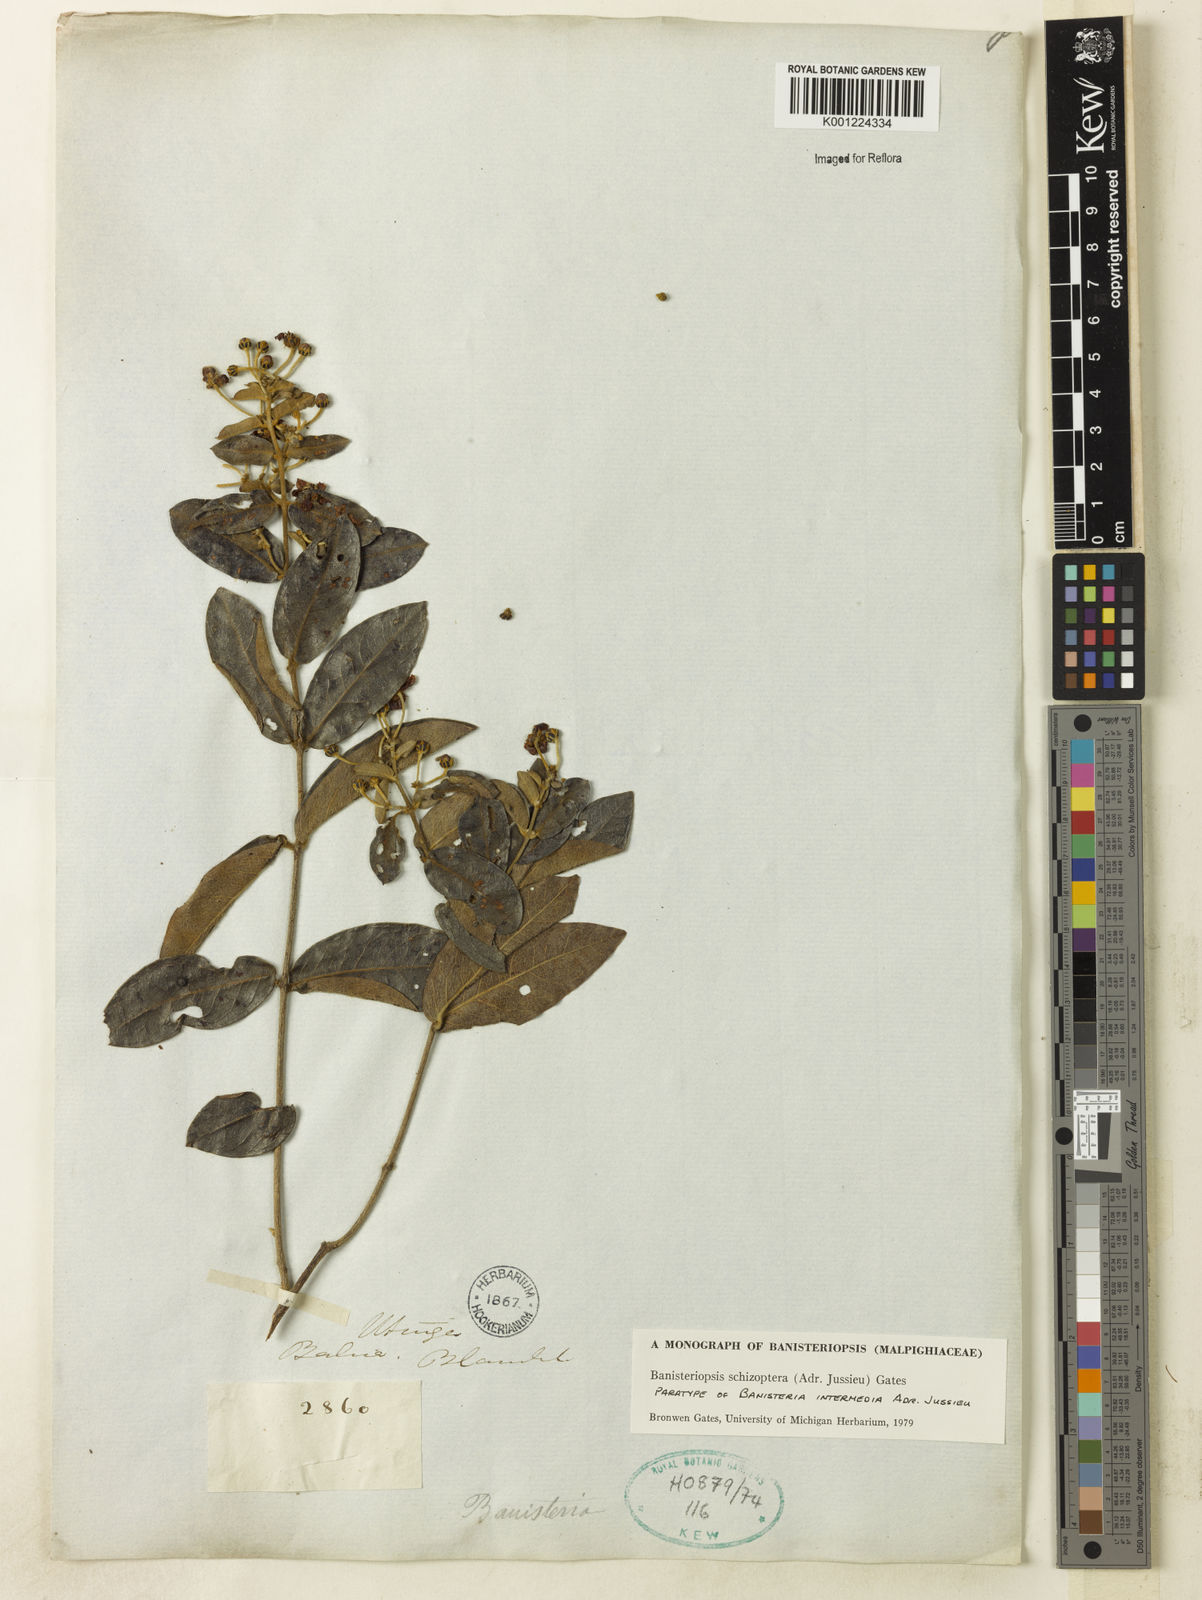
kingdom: Plantae
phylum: Tracheophyta
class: Magnoliopsida
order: Malpighiales
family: Malpighiaceae
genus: Banisteriopsis
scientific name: Banisteriopsis schizoptera
